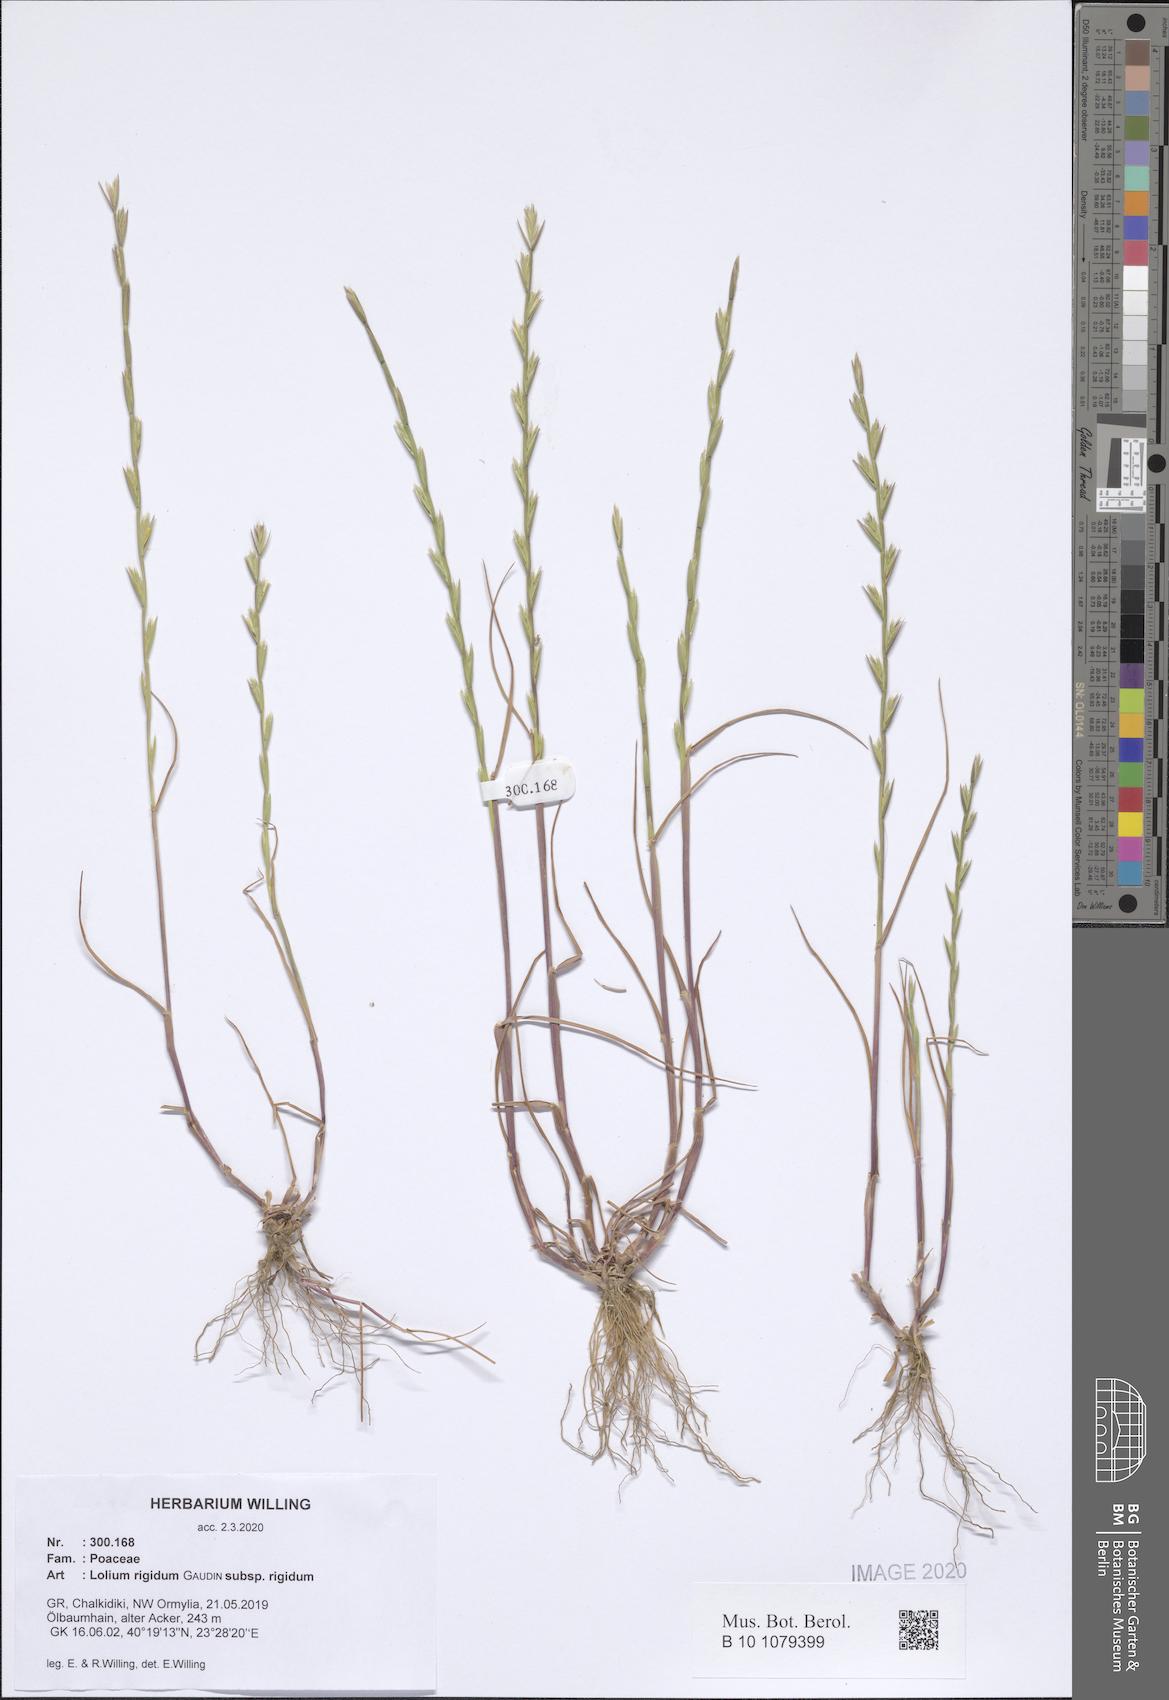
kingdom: Plantae
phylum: Tracheophyta
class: Liliopsida
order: Poales
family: Poaceae
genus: Lolium
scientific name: Lolium rigidum
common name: Wimmera ryegrass
